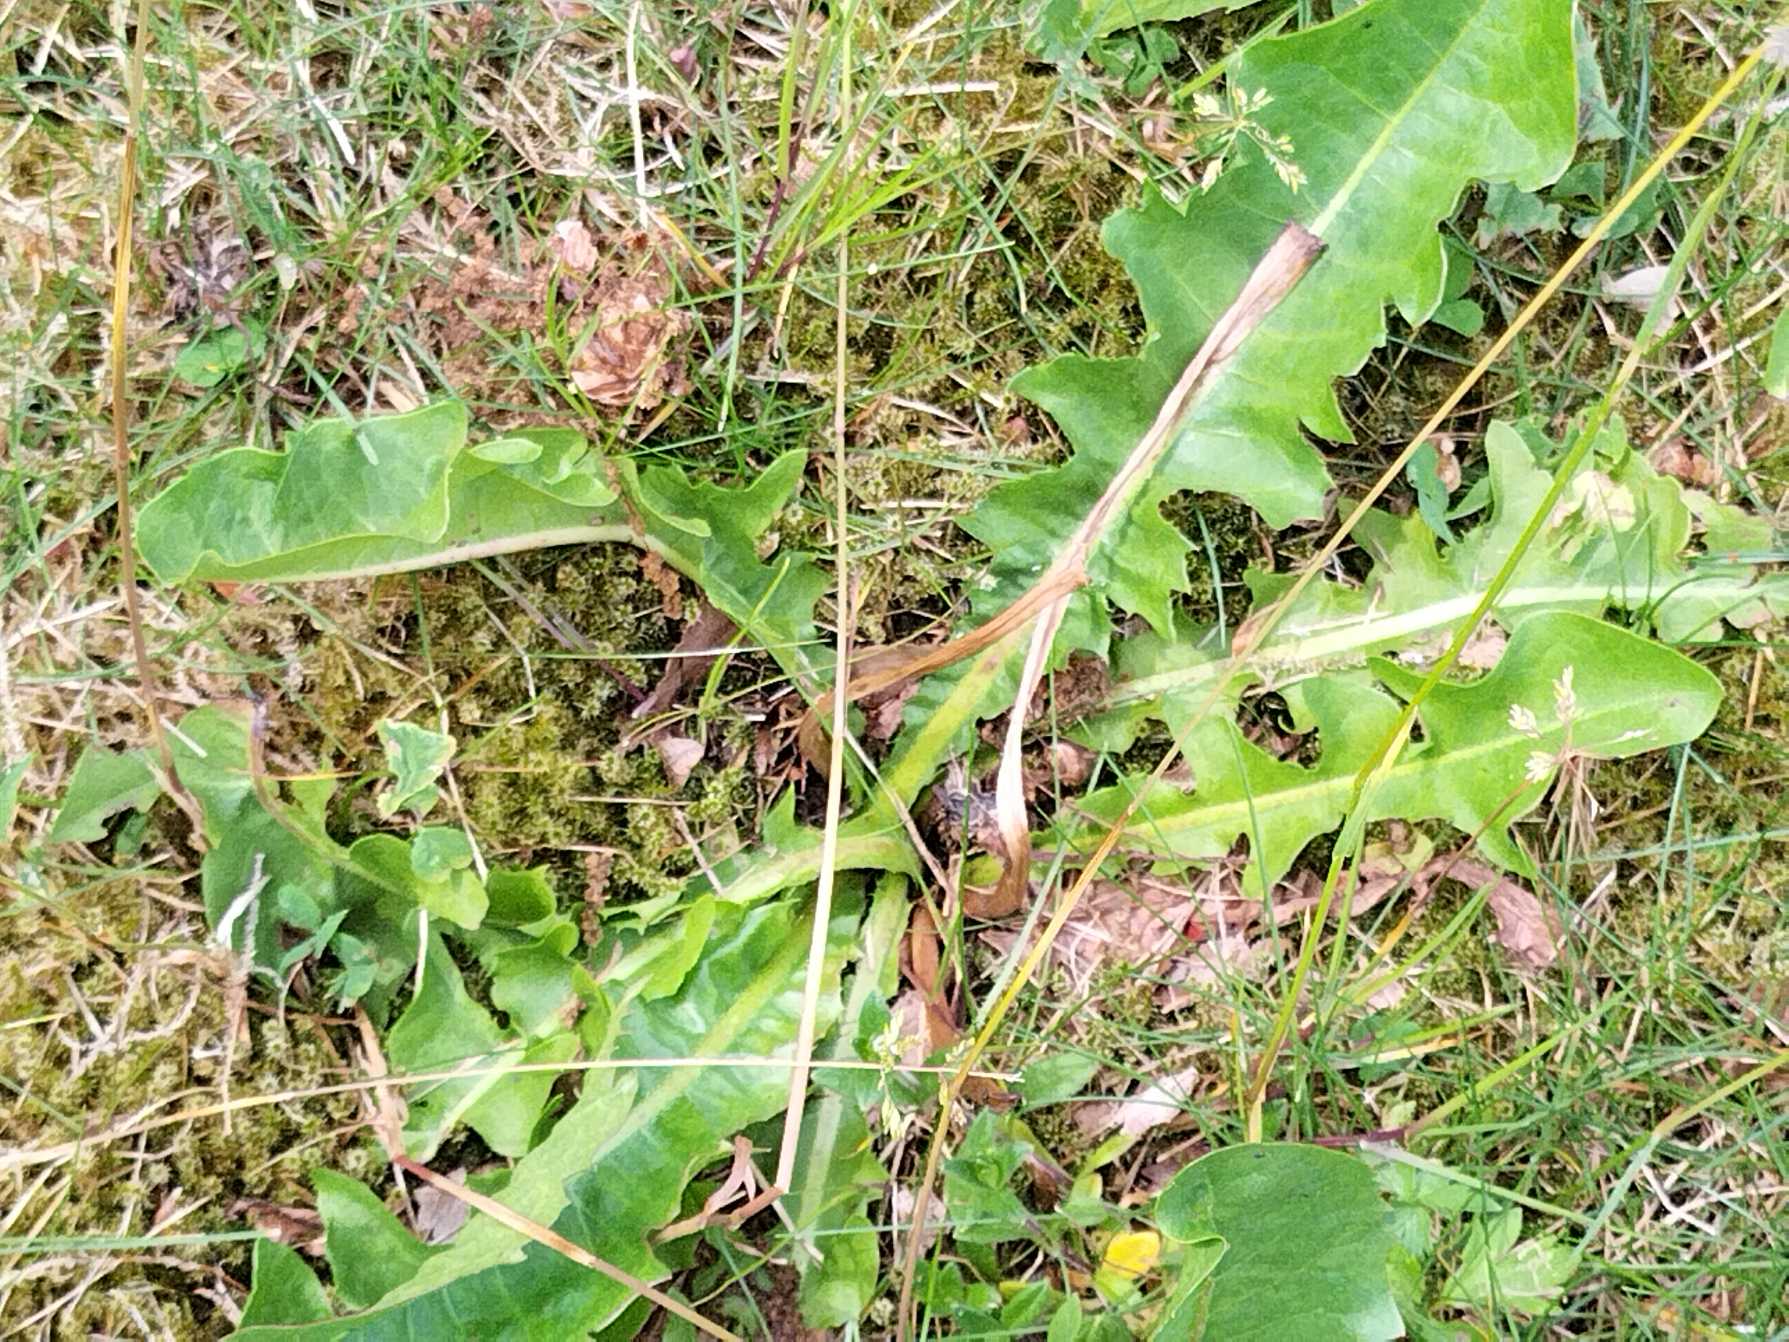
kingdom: Plantae
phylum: Tracheophyta
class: Magnoliopsida
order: Asterales
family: Asteraceae
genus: Taraxacum
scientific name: Taraxacum
